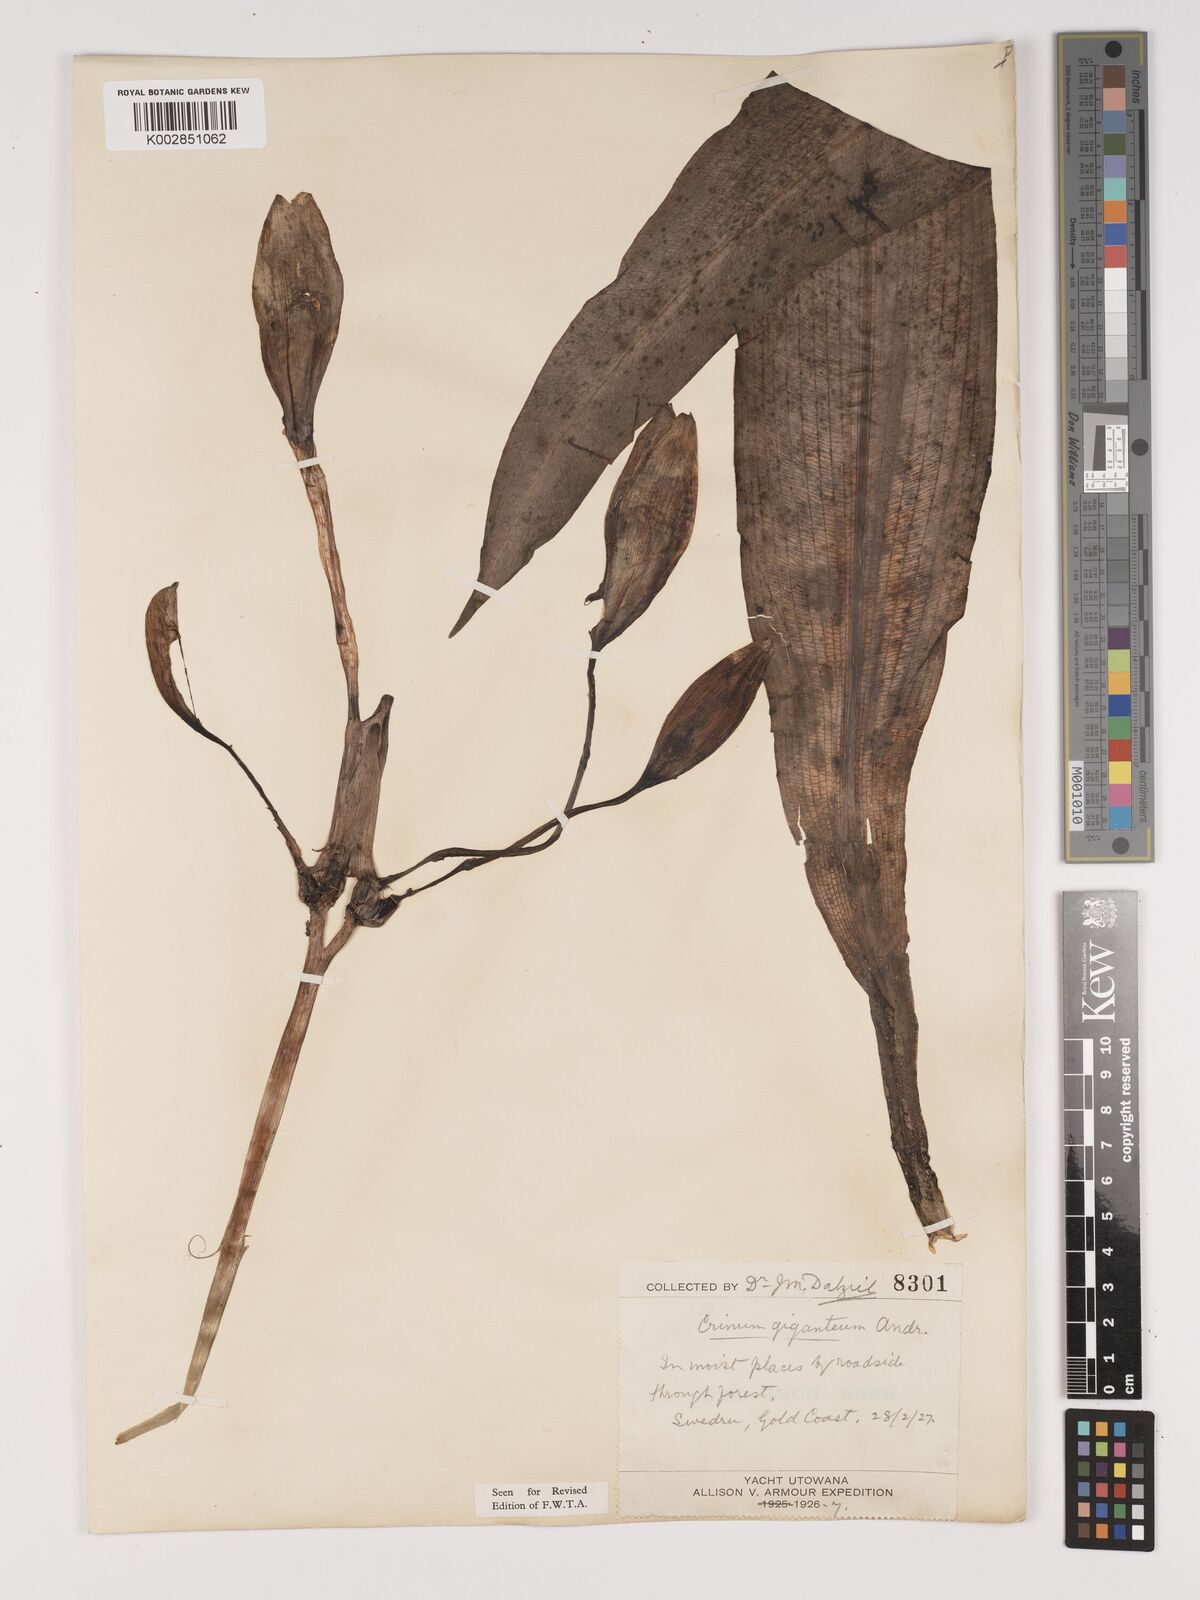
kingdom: Plantae
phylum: Tracheophyta
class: Liliopsida
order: Asparagales
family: Amaryllidaceae
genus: Crinum
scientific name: Crinum jagus
